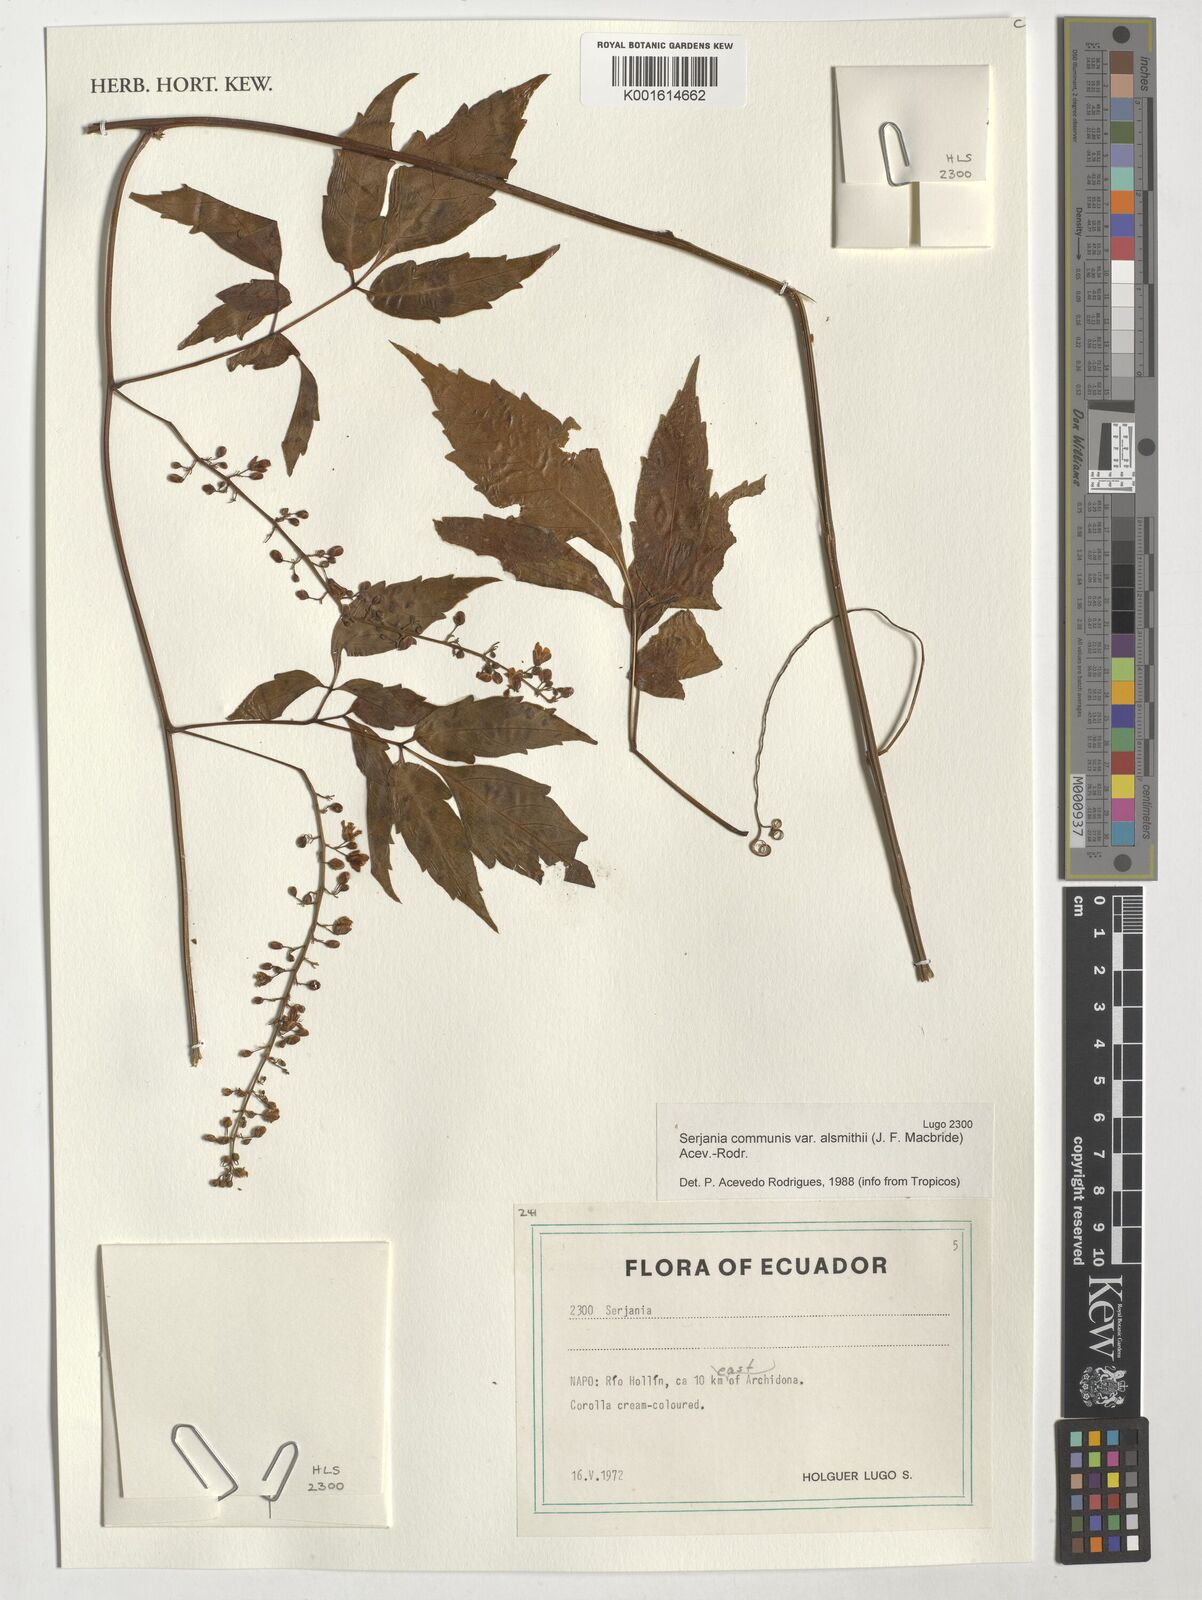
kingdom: Plantae
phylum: Tracheophyta
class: Magnoliopsida
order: Sapindales
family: Sapindaceae
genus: Serjania
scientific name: Serjania communis
